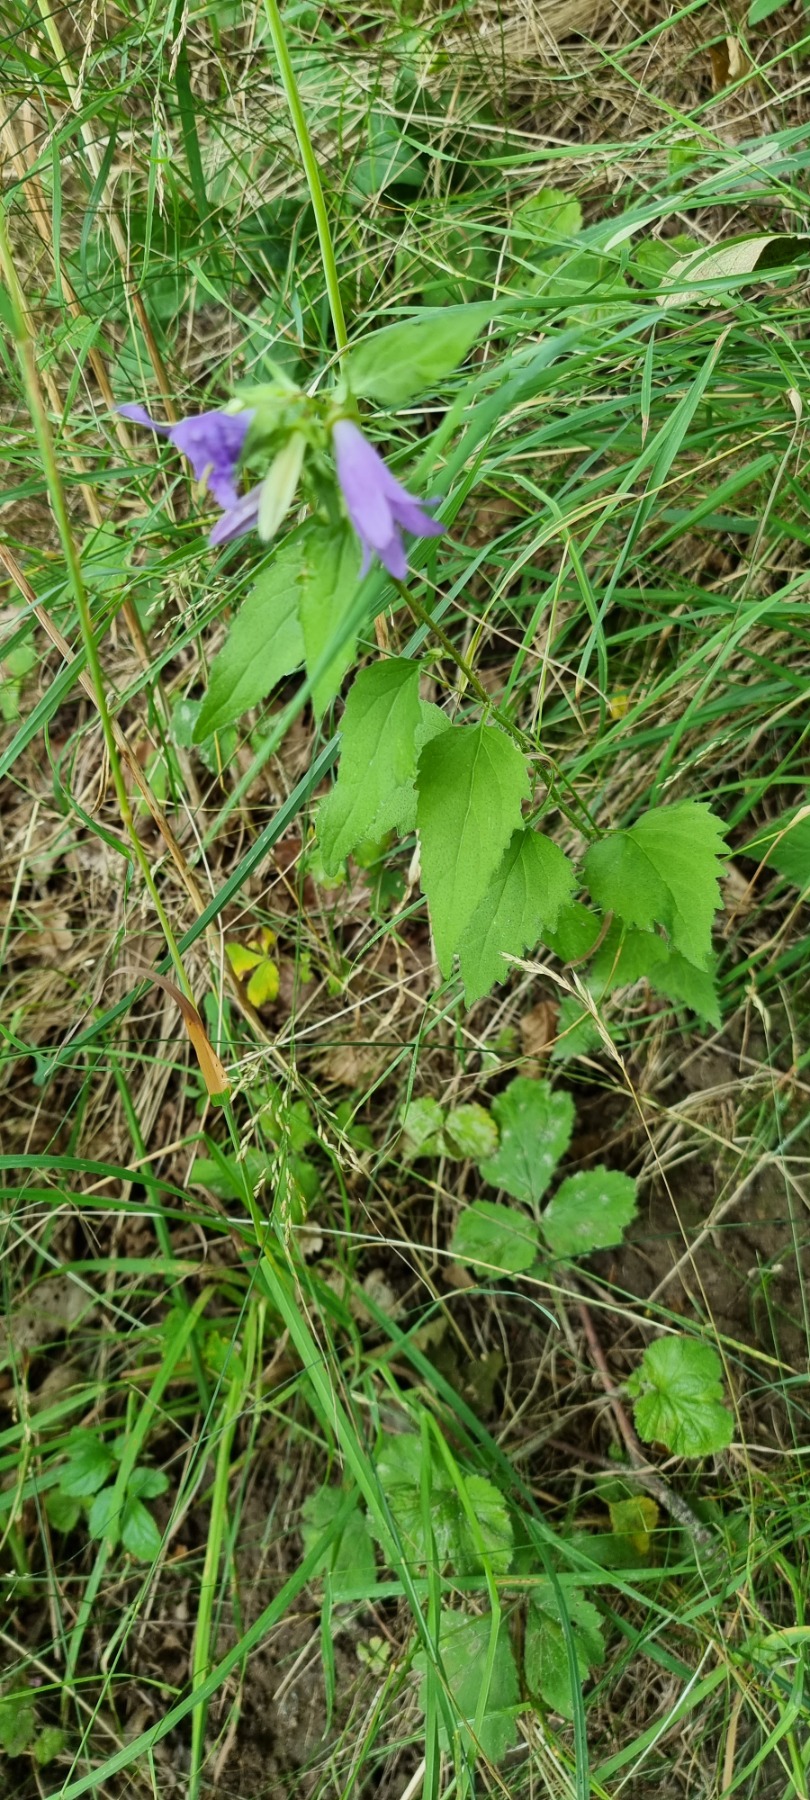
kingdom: Plantae
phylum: Tracheophyta
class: Magnoliopsida
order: Asterales
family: Campanulaceae
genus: Campanula
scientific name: Campanula trachelium
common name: Nælde-klokke
